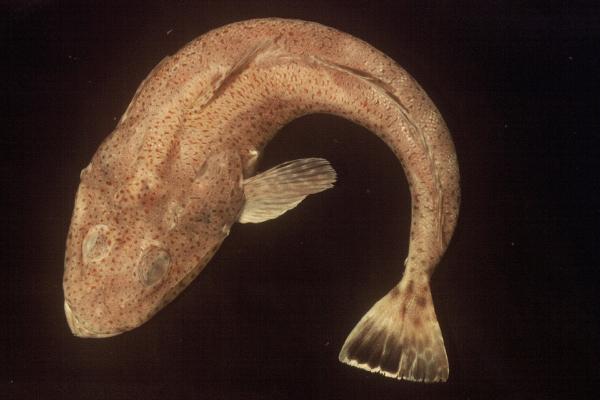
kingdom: Animalia
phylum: Chordata
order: Scorpaeniformes
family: Platycephalidae
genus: Platycephalus
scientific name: Platycephalus bassensis
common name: Sand flathead
